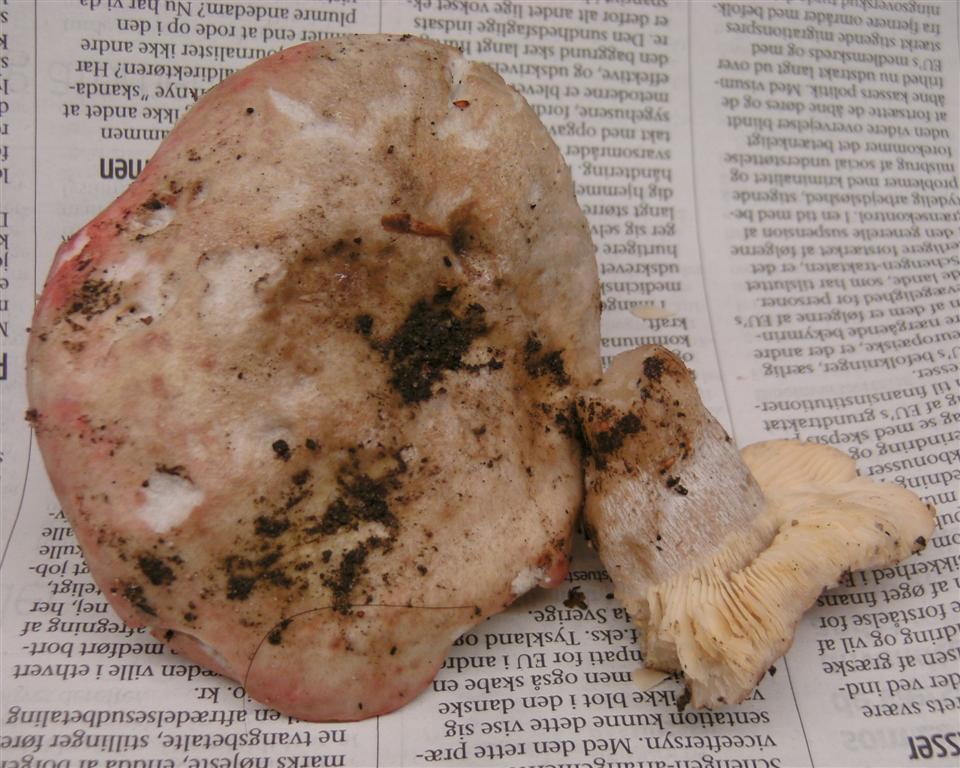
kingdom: Fungi
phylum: Basidiomycota
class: Agaricomycetes
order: Russulales
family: Russulaceae
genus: Russula
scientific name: Russula depallens
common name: falmende skørhat
